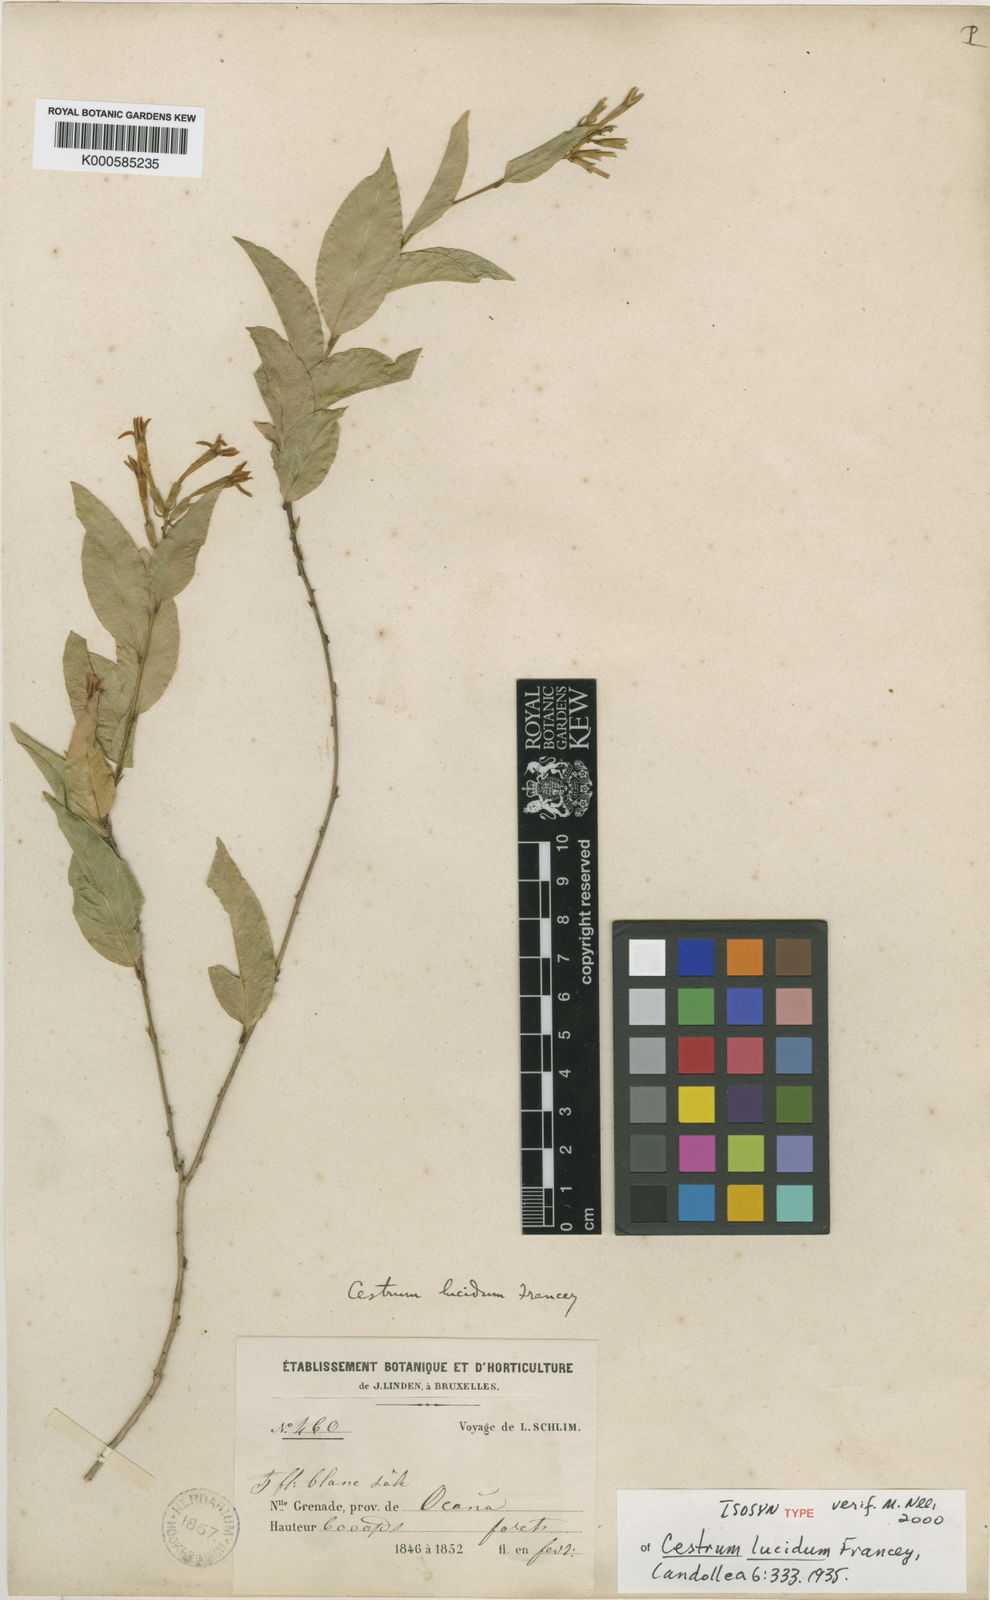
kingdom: Plantae
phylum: Tracheophyta
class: Magnoliopsida
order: Solanales
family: Solanaceae
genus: Cestrum
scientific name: Cestrum lucidum
